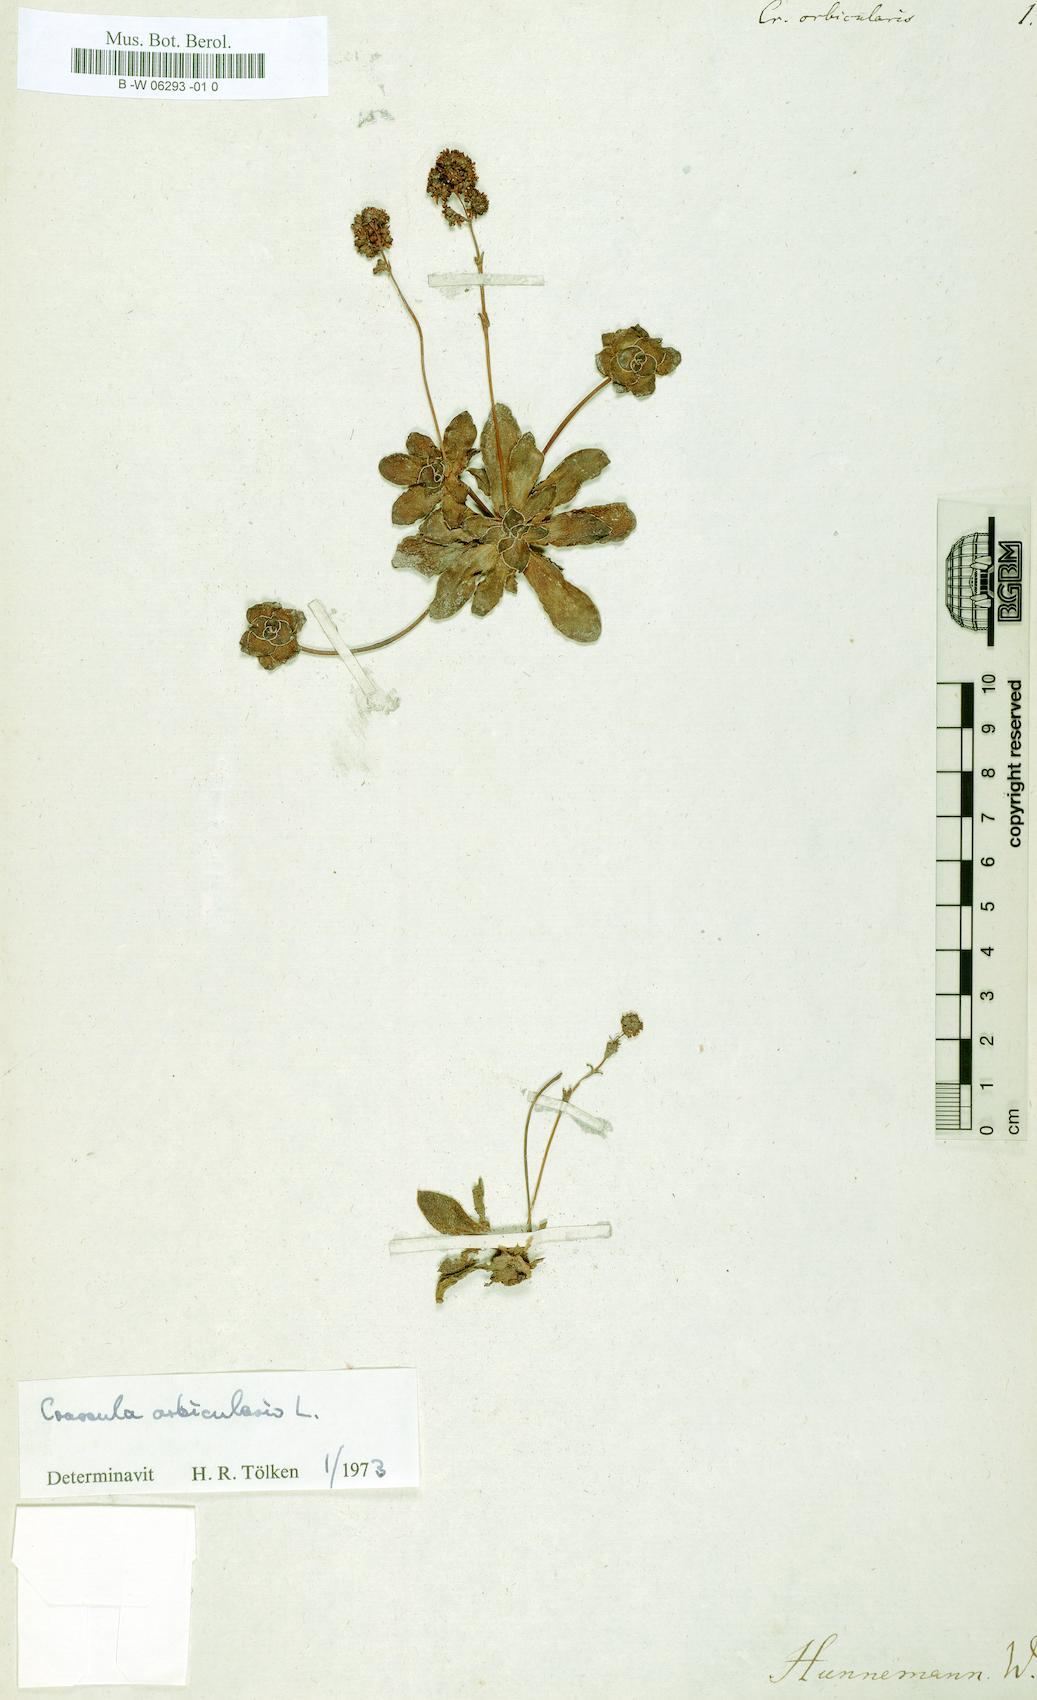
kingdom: Plantae
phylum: Tracheophyta
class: Magnoliopsida
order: Saxifragales
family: Crassulaceae
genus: Crassula
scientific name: Crassula orbicularis
